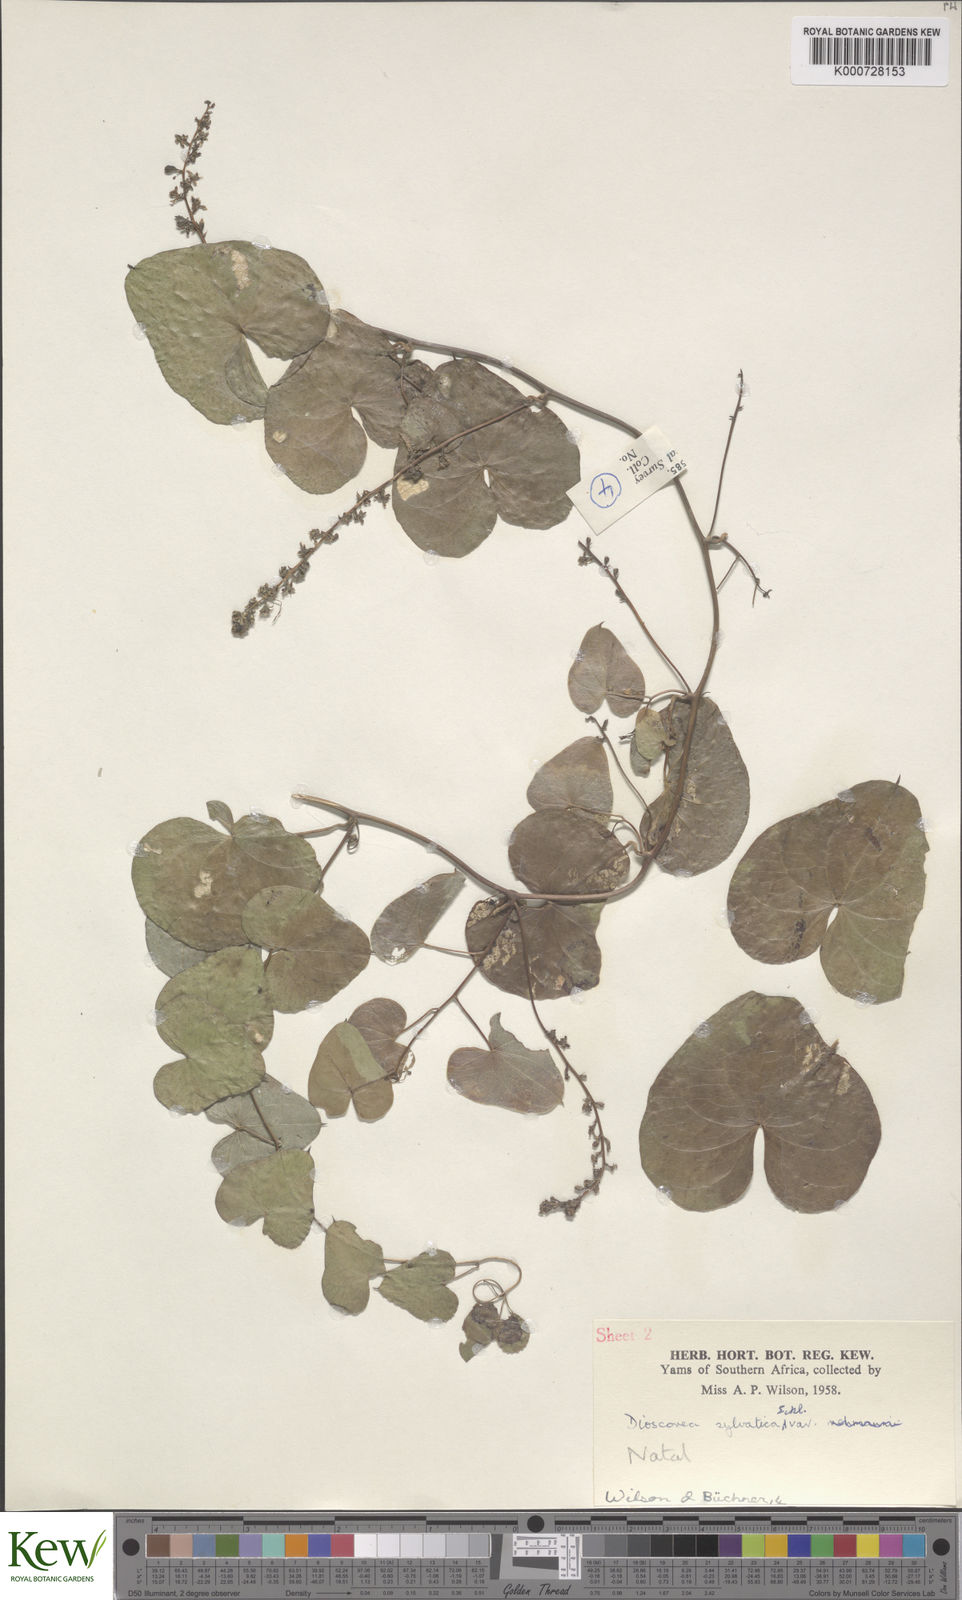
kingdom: Plantae
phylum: Tracheophyta
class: Liliopsida
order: Dioscoreales
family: Dioscoreaceae
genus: Dioscorea
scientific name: Dioscorea sylvatica
